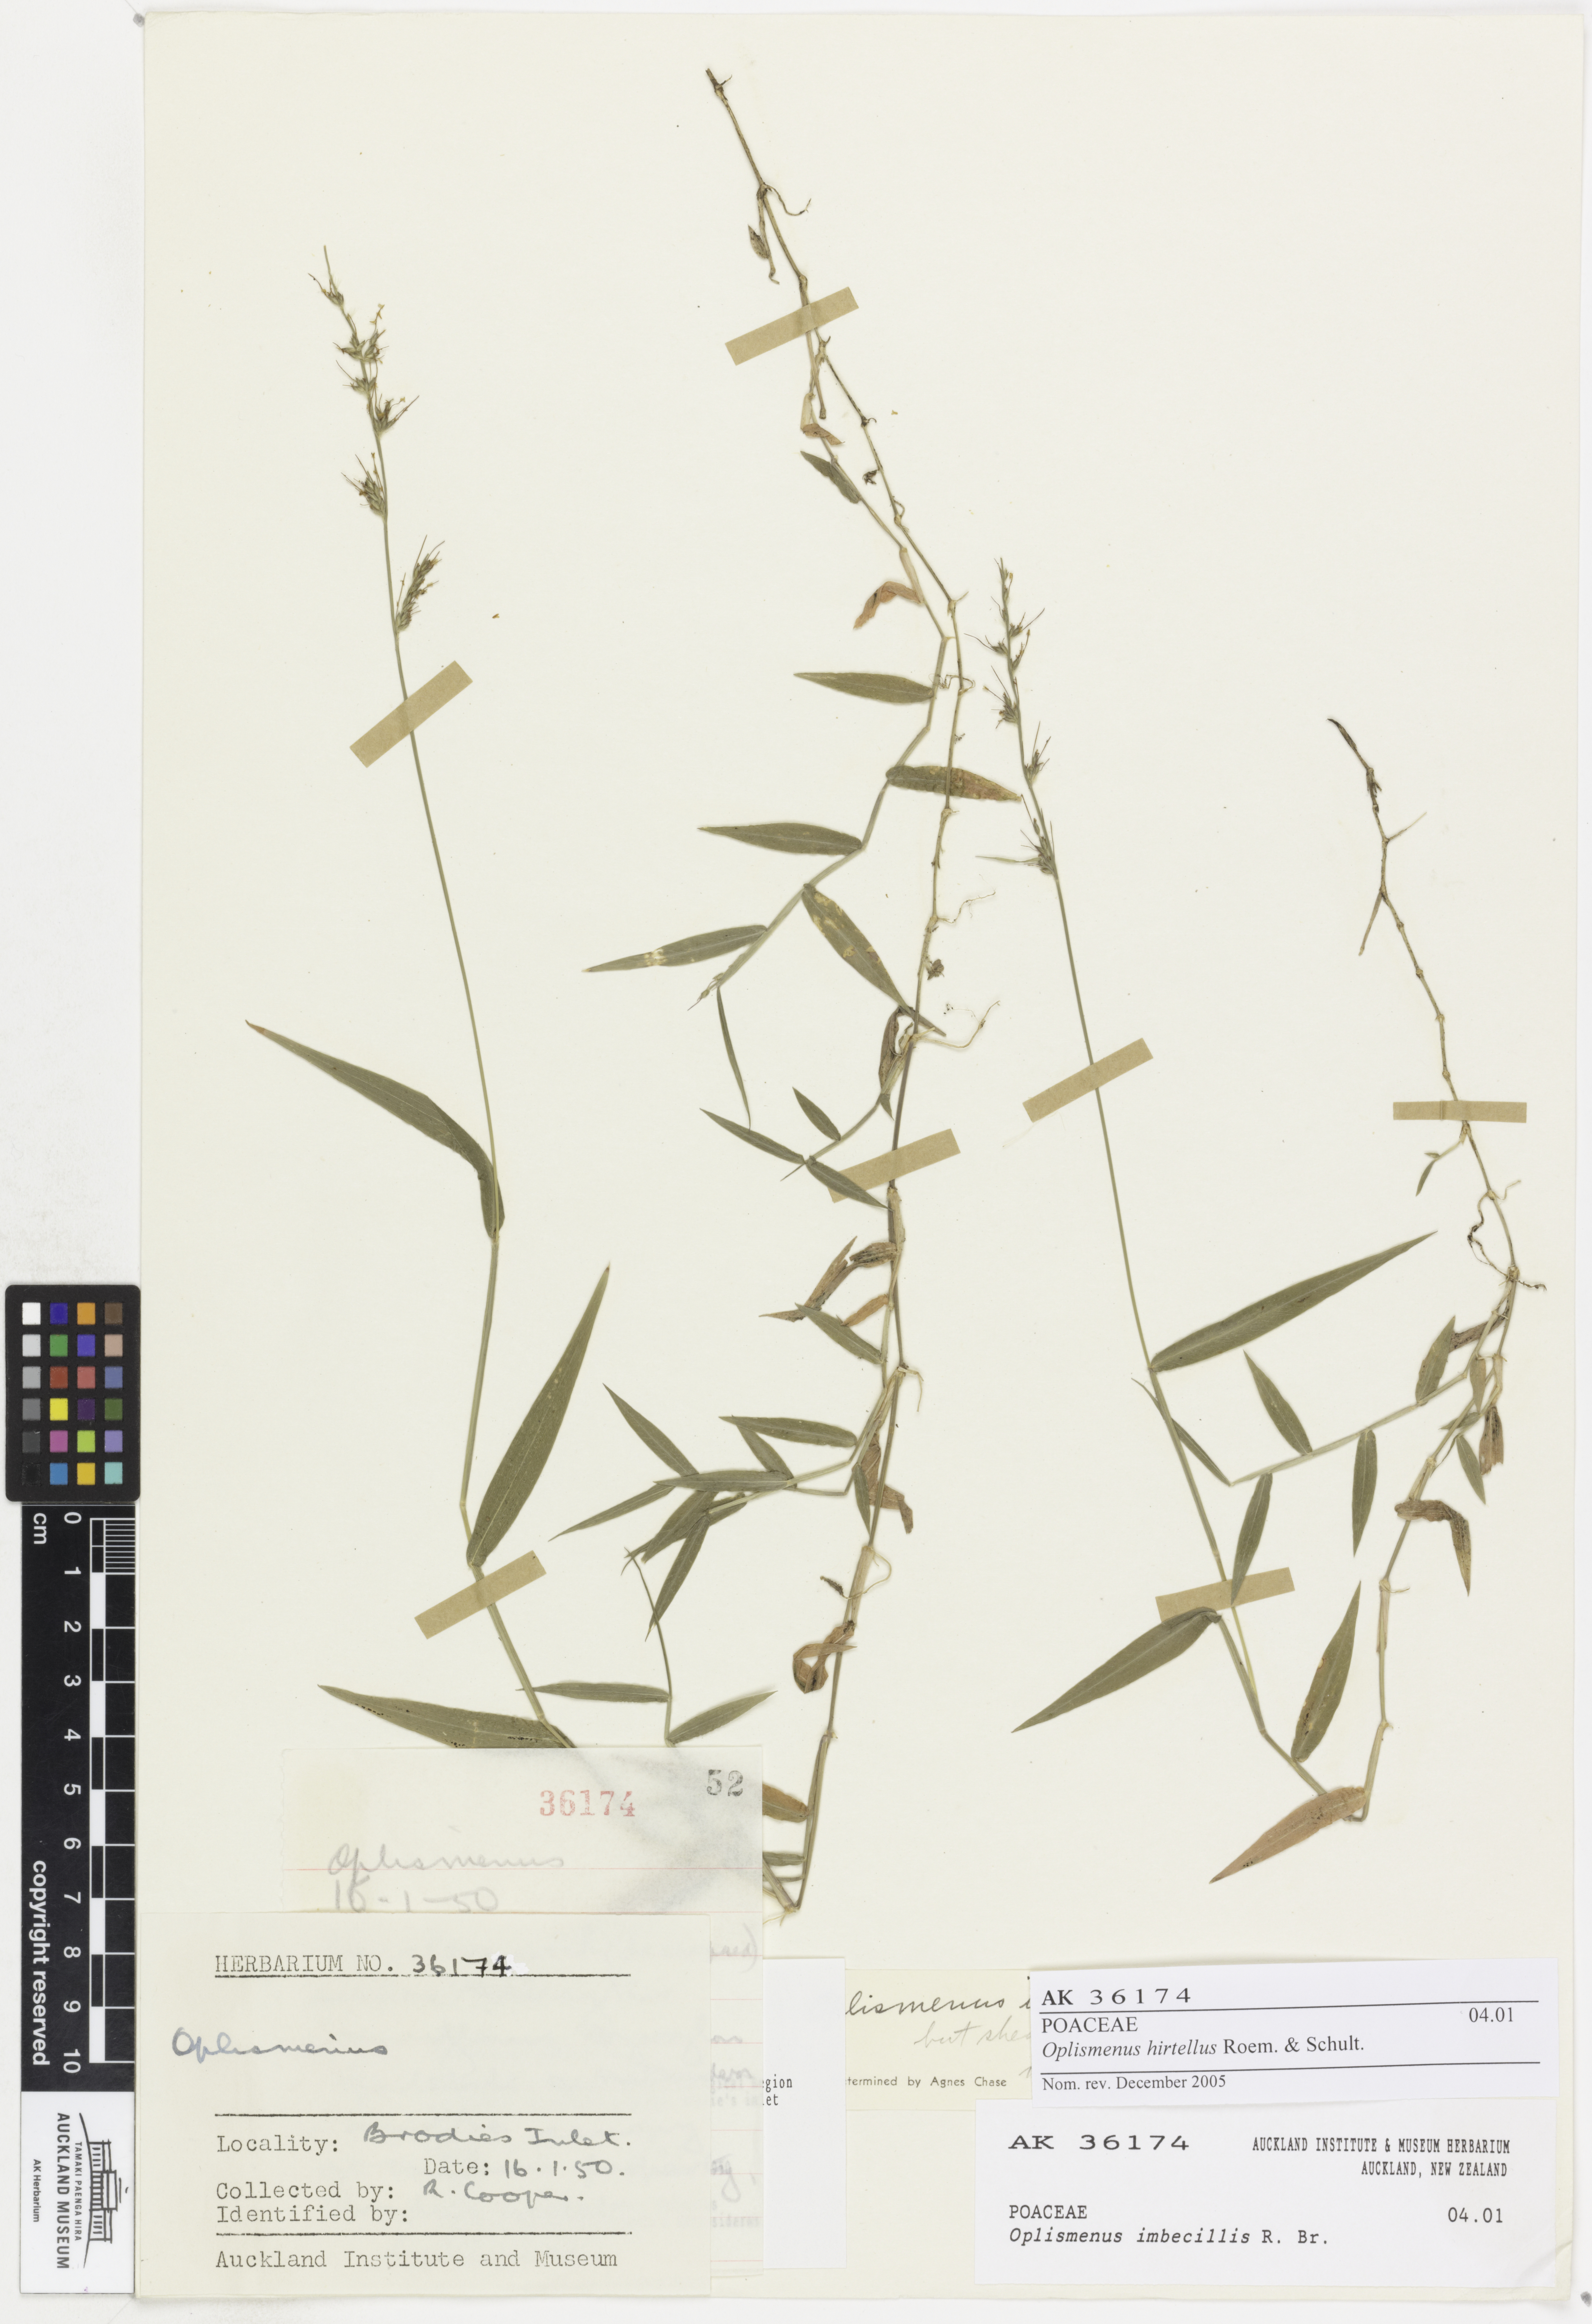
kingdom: Plantae
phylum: Tracheophyta
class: Liliopsida
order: Poales
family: Poaceae
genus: Oplismenus
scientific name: Oplismenus hirtellus
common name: Basketgrass
